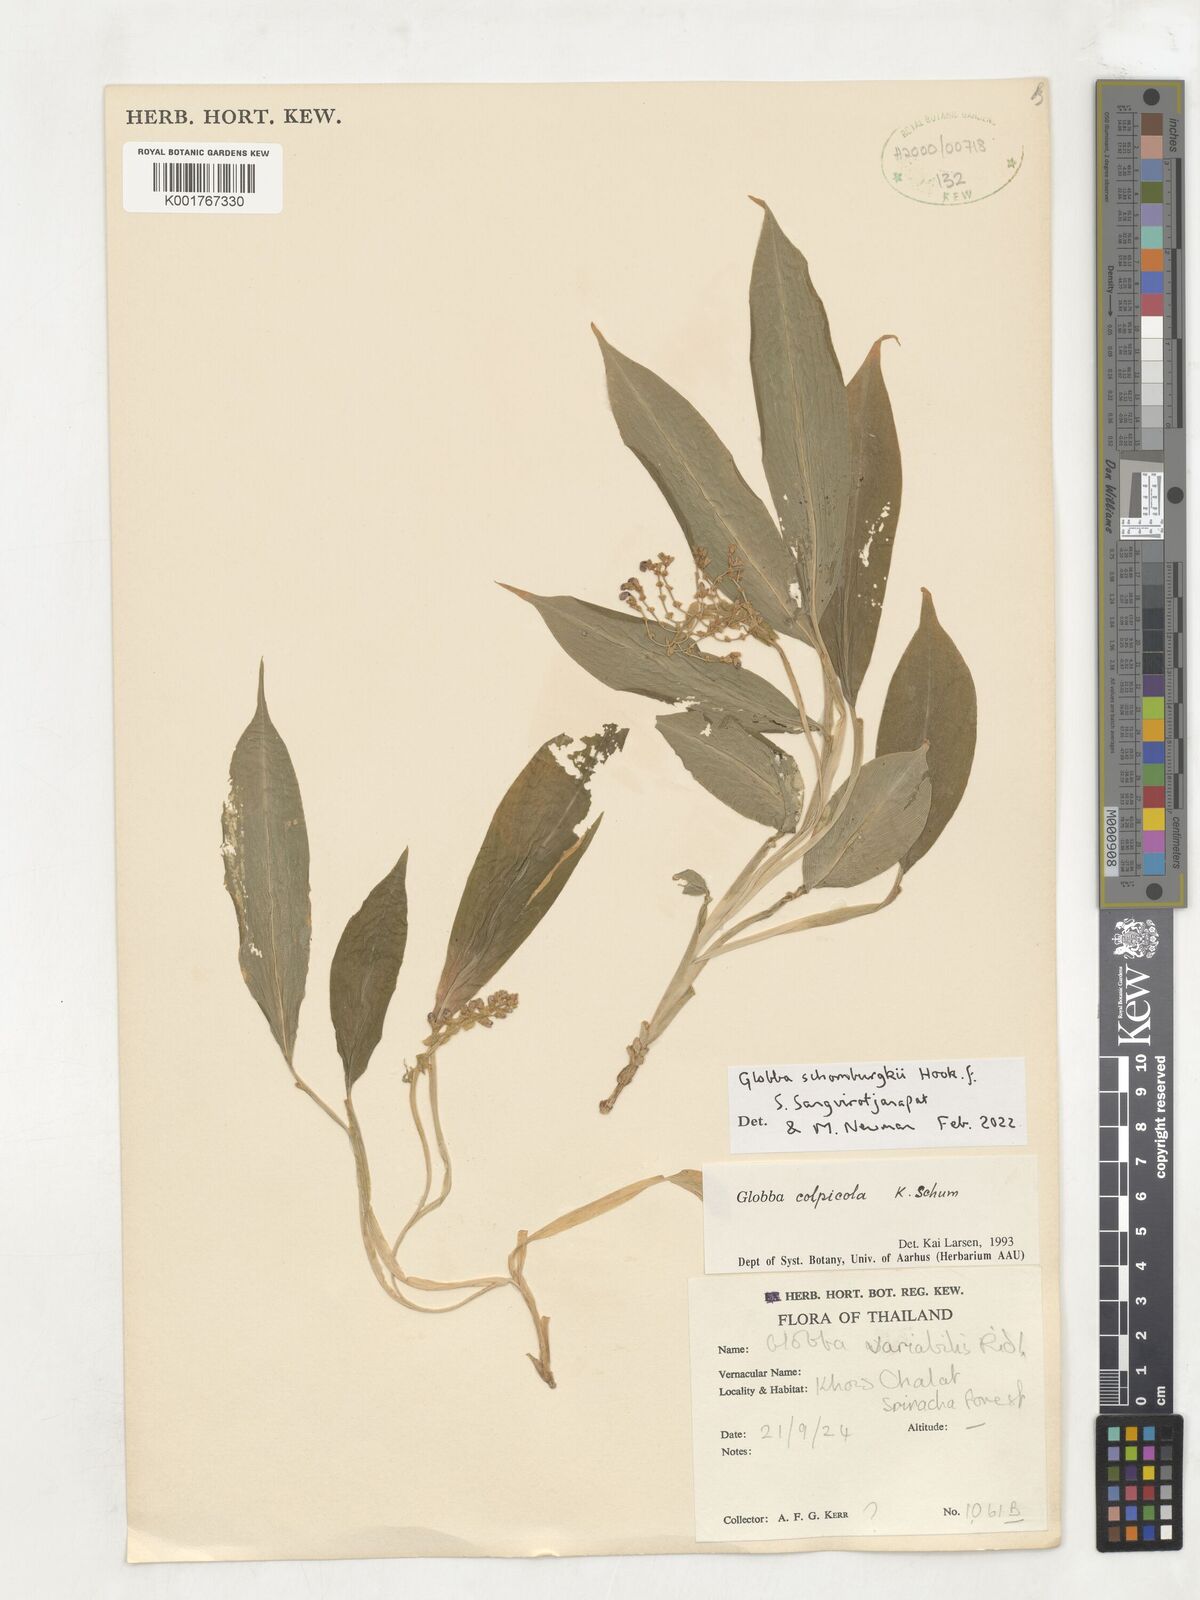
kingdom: Plantae
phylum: Tracheophyta
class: Liliopsida
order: Zingiberales
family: Zingiberaceae
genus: Globba
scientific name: Globba schomburgkii
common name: Dancing girl ginger
